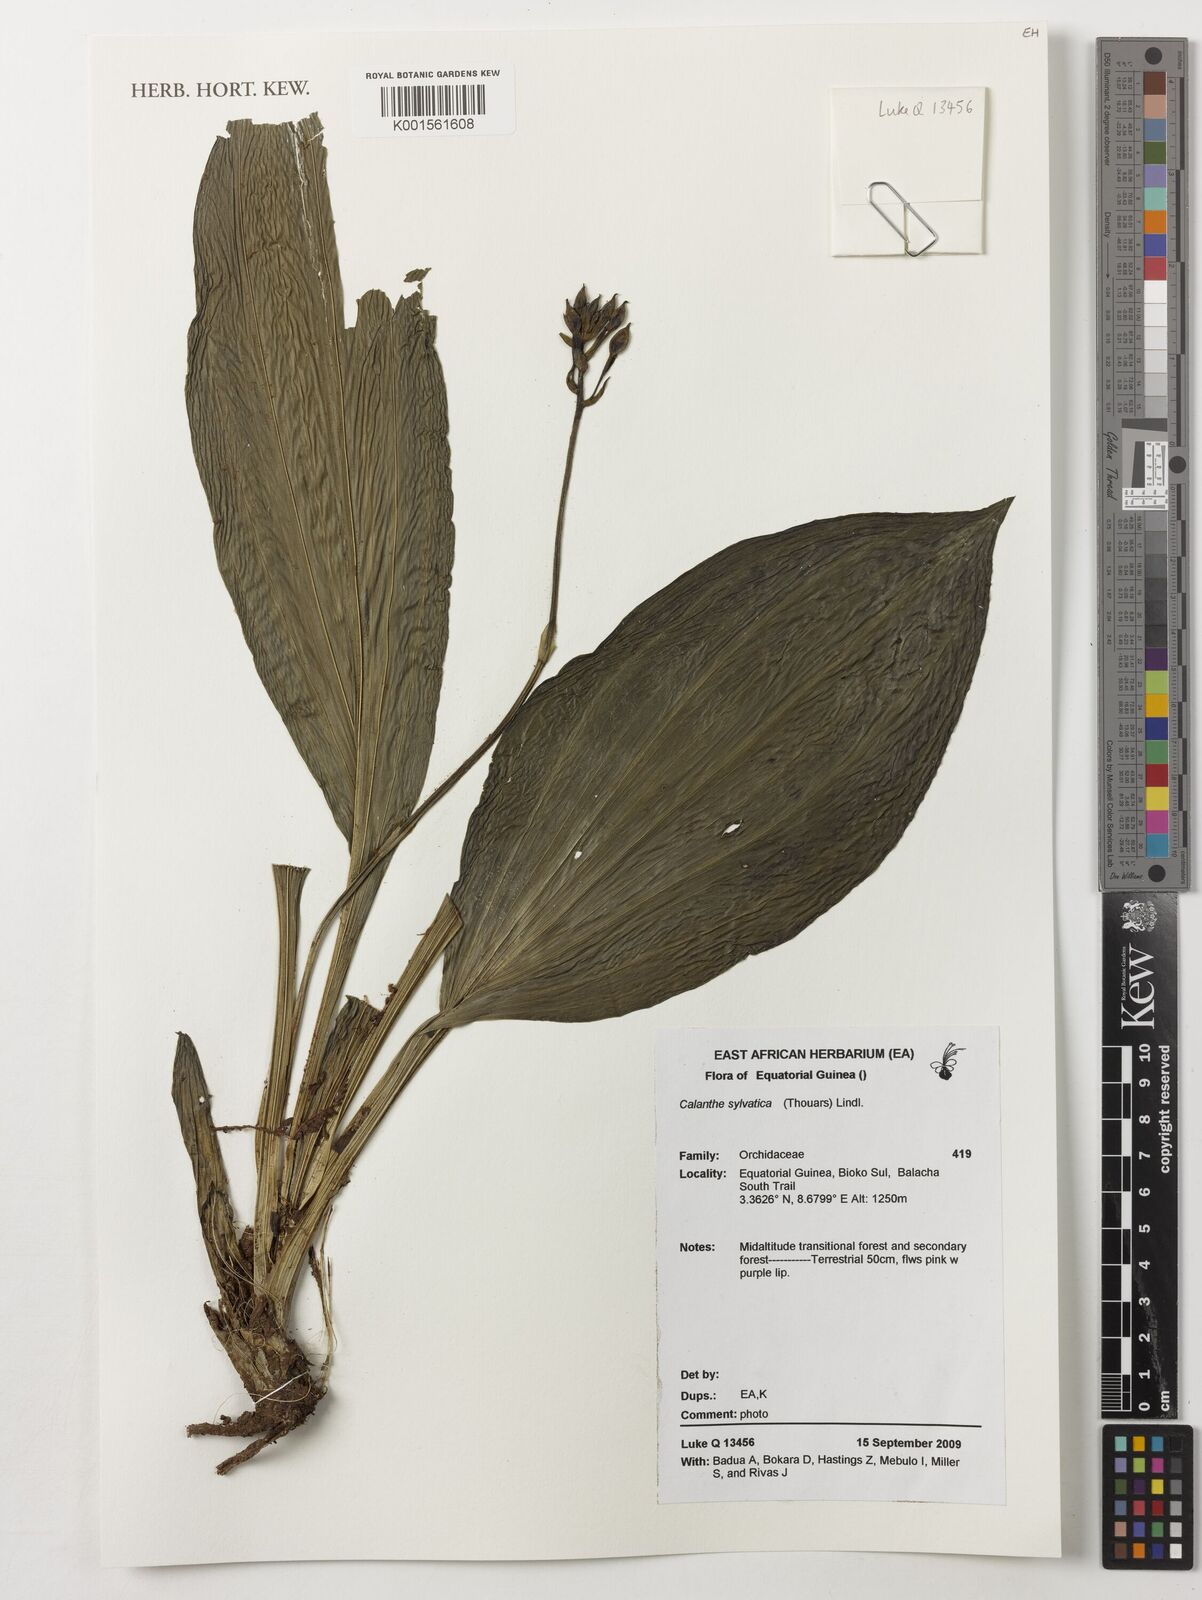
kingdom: Plantae
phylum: Tracheophyta
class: Liliopsida
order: Asparagales
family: Orchidaceae
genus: Calanthe
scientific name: Calanthe sylvatica
